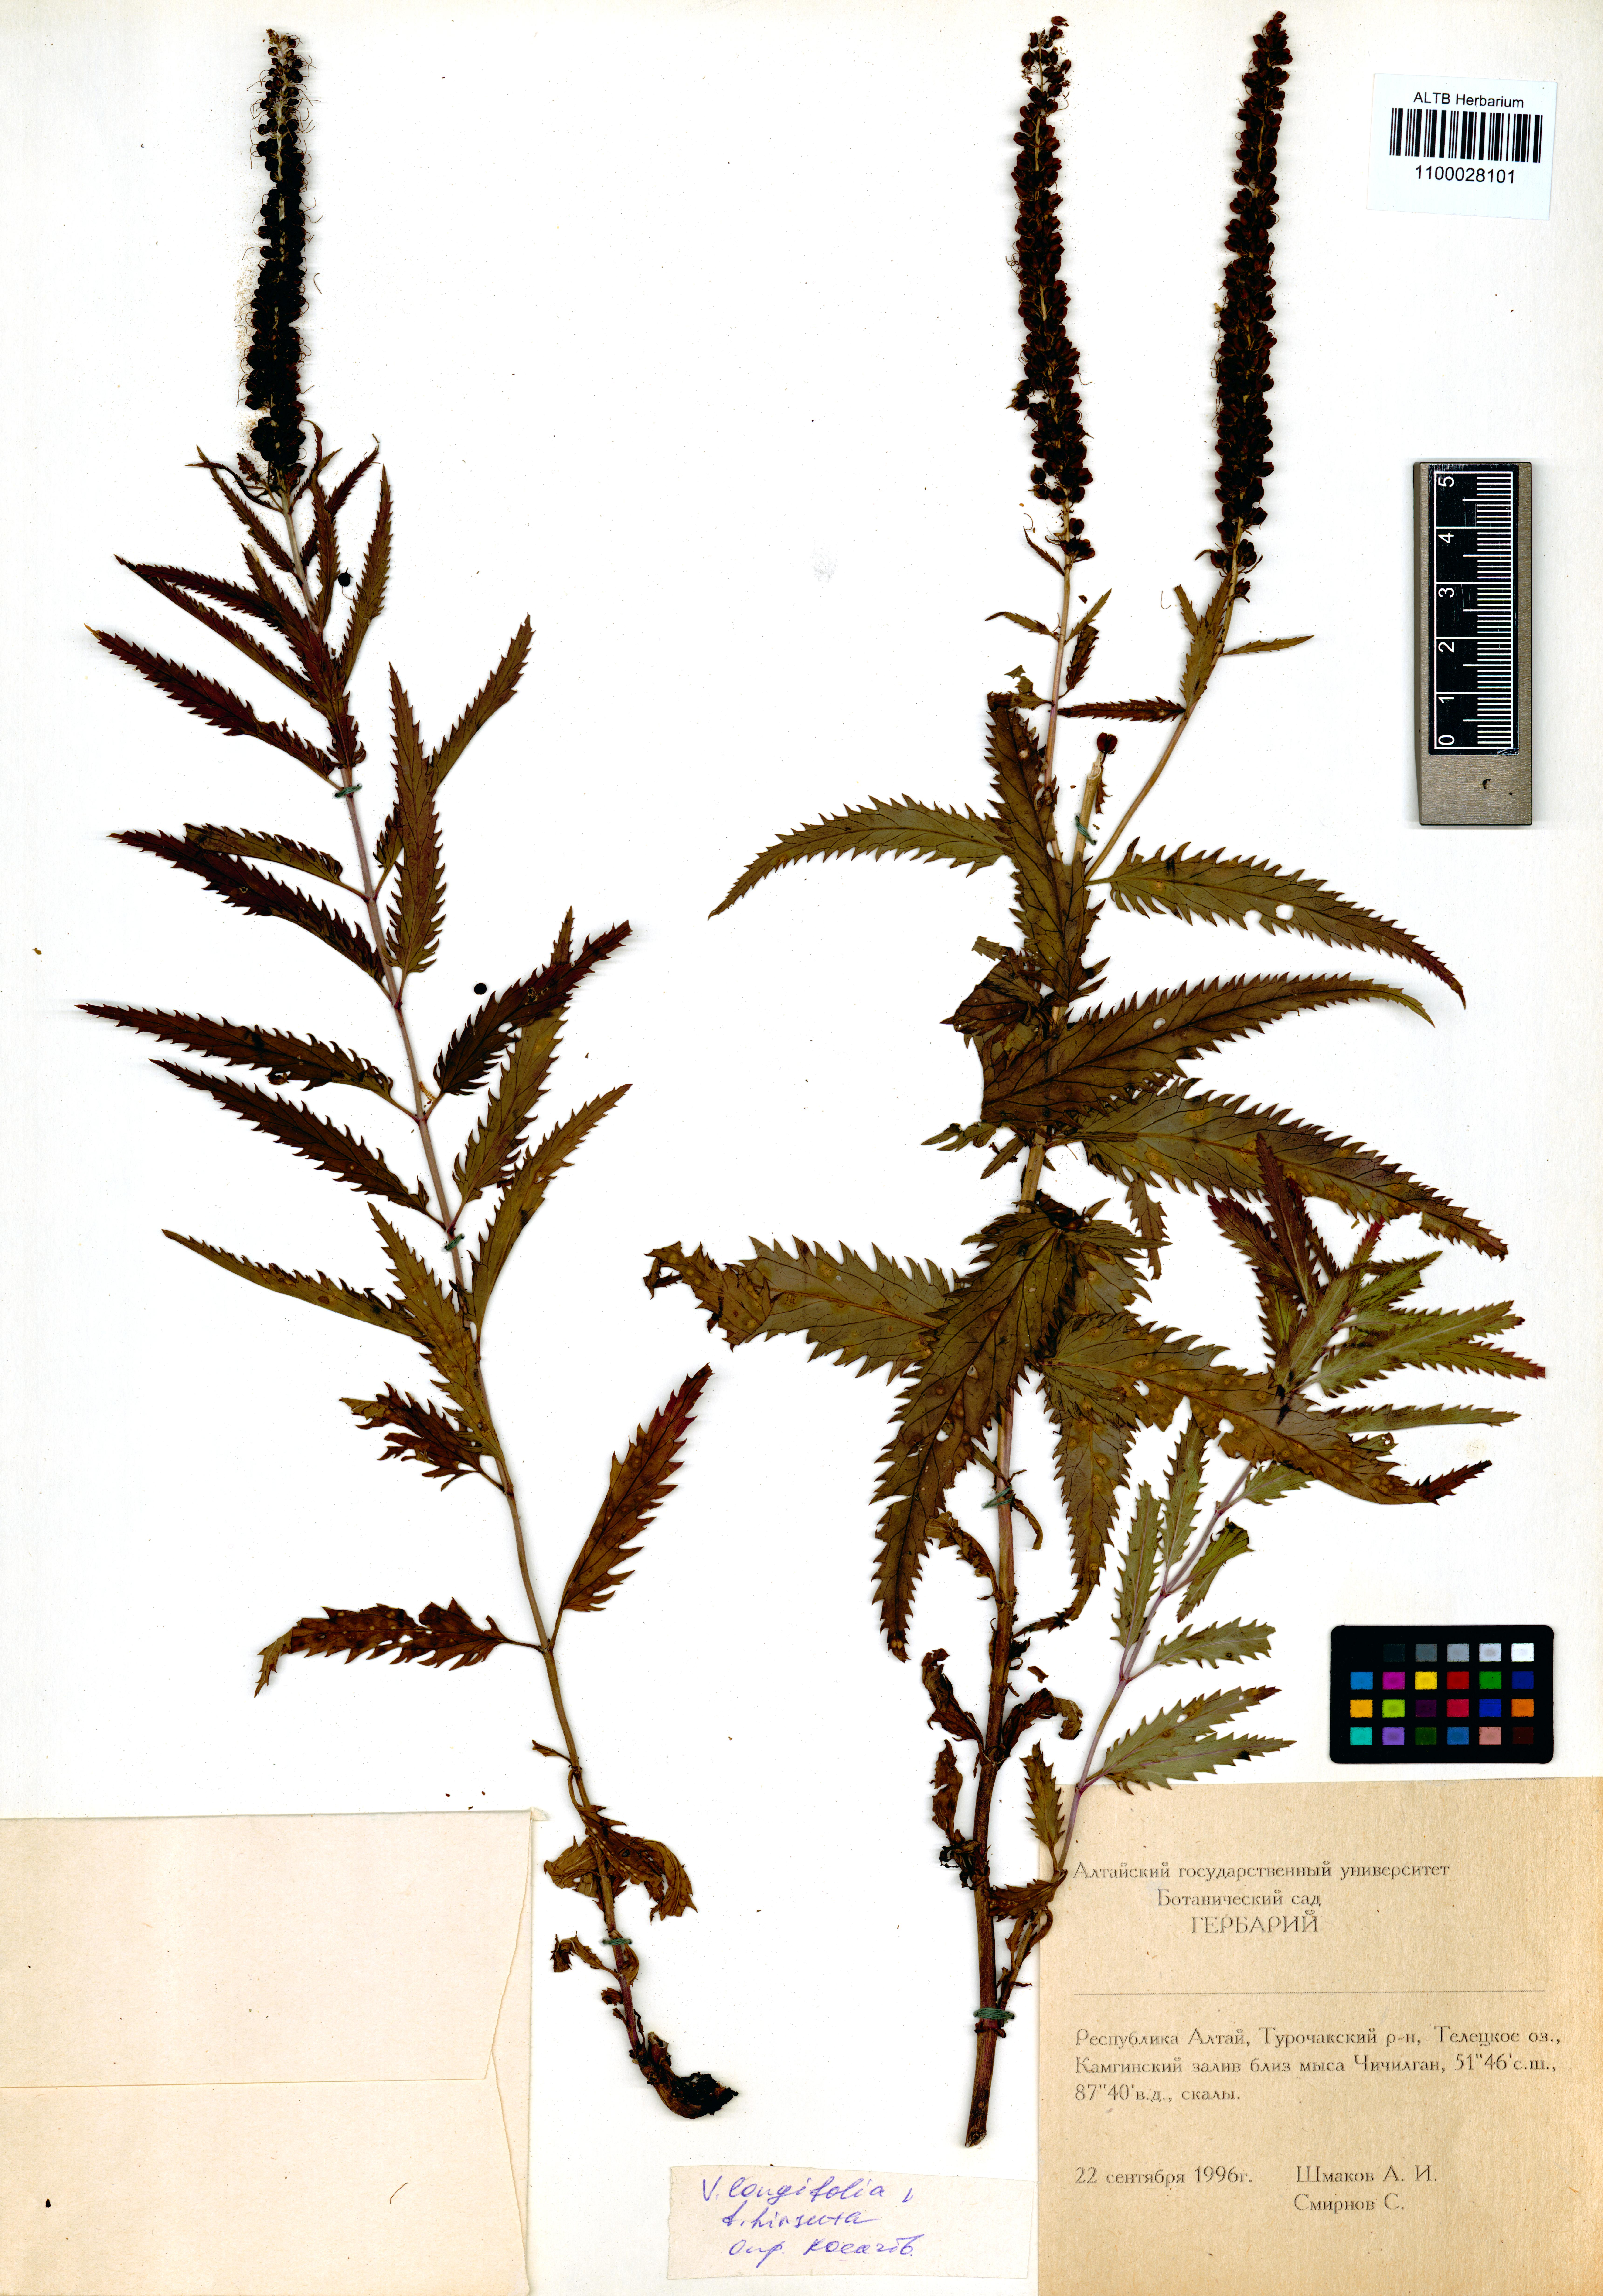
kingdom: Plantae
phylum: Tracheophyta
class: Magnoliopsida
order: Lamiales
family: Plantaginaceae
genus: Veronica
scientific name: Veronica longifolia
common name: Garden speedwell
